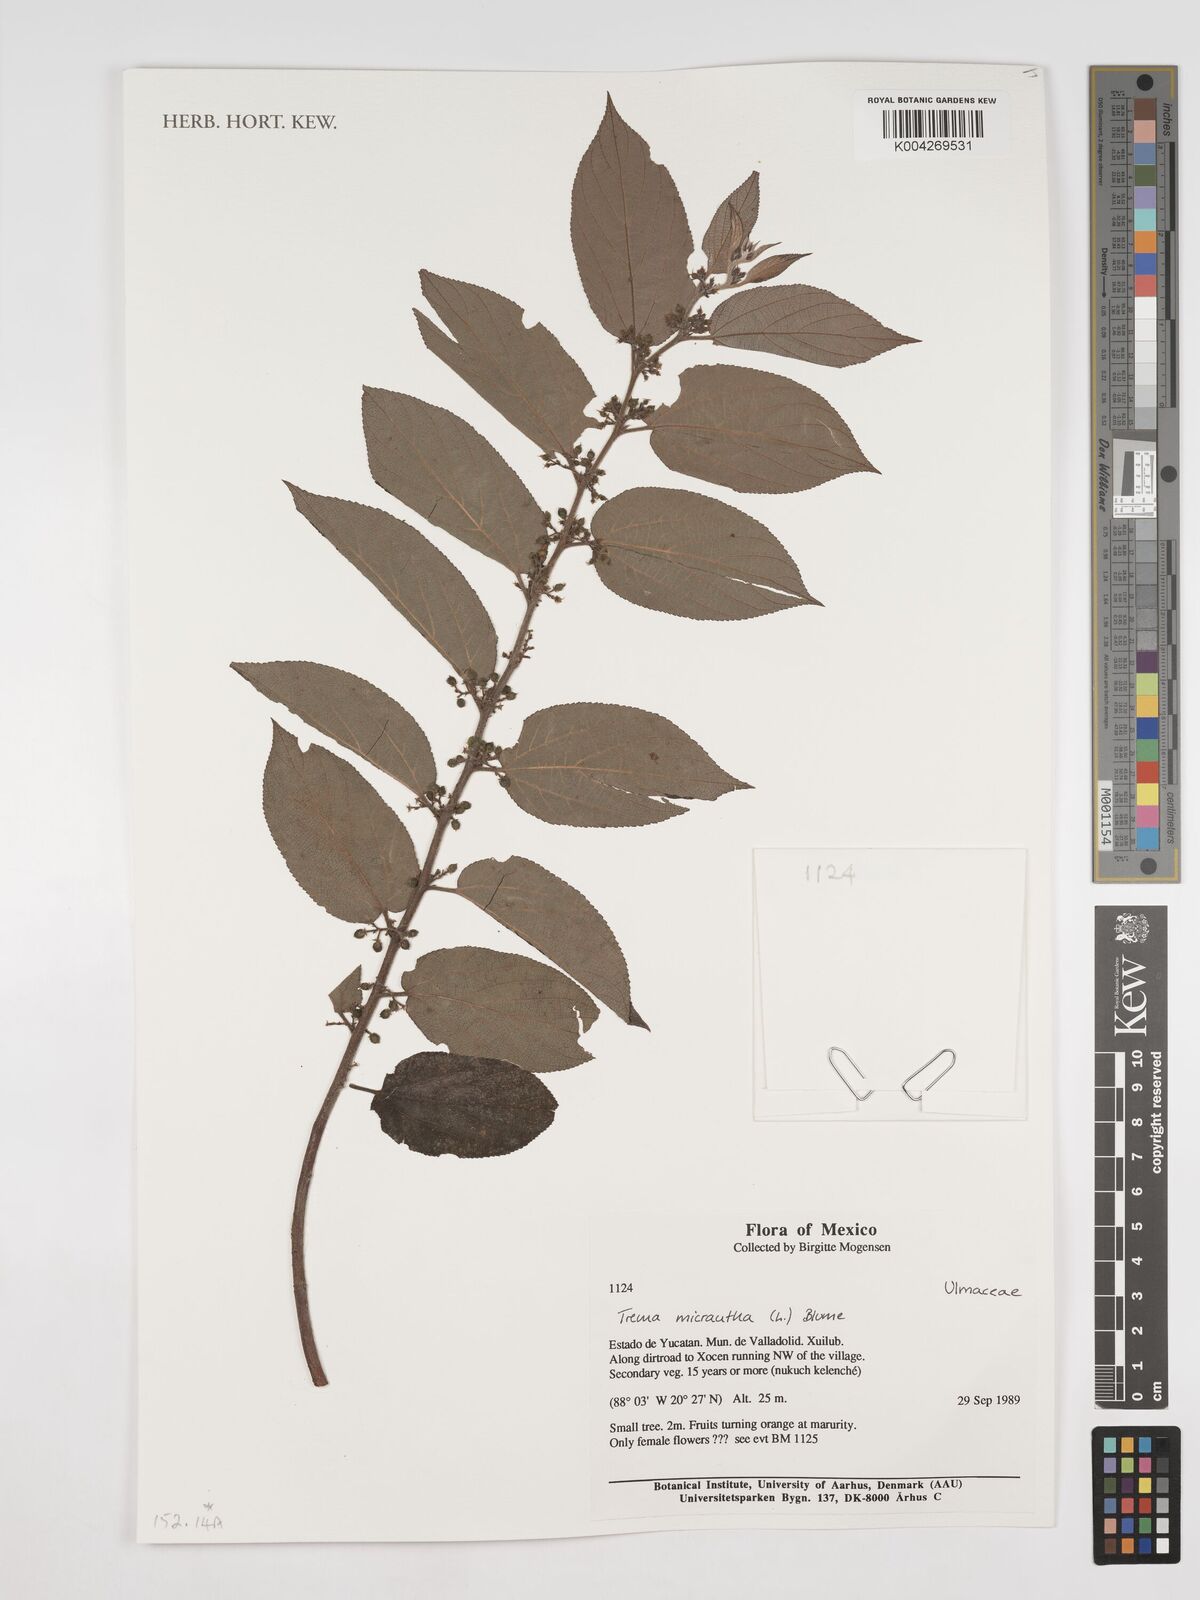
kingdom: Plantae
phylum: Tracheophyta
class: Magnoliopsida
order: Rosales
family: Cannabaceae
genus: Trema
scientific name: Trema micranthum
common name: Jamaican nettletree
